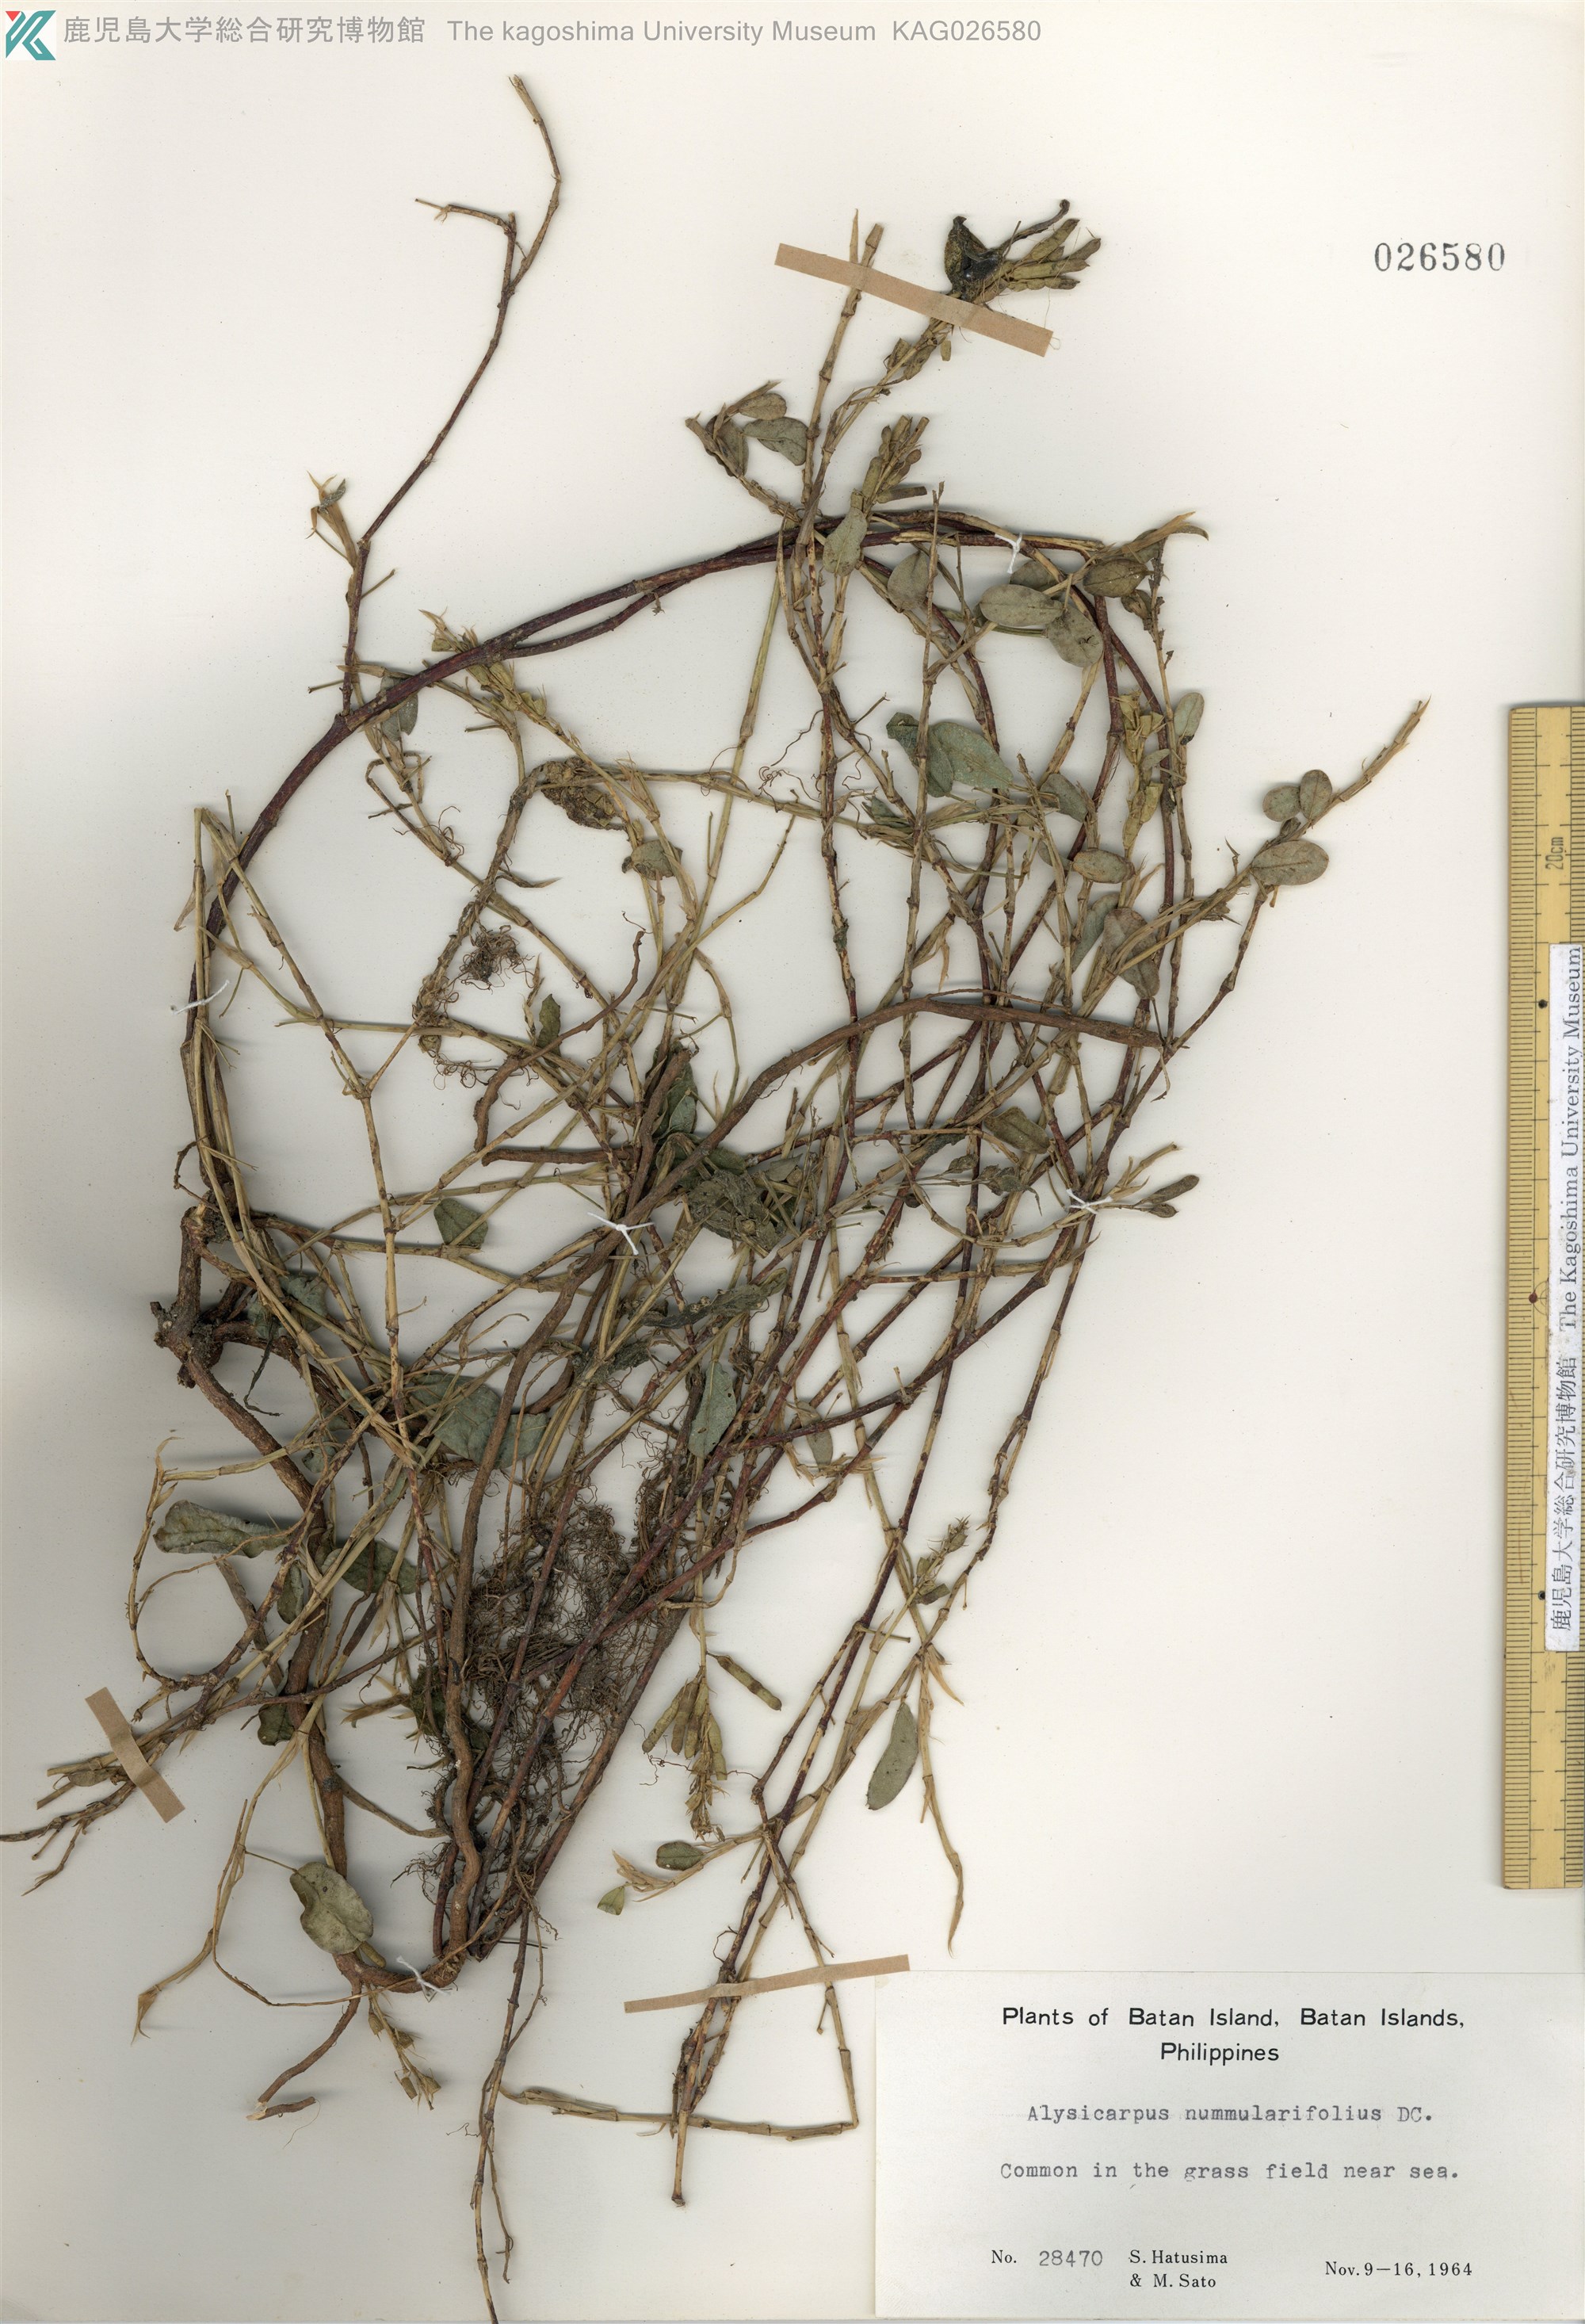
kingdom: Plantae
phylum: Tracheophyta
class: Magnoliopsida
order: Fabales
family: Fabaceae
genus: Alysicarpus
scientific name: Alysicarpus vaginalis
